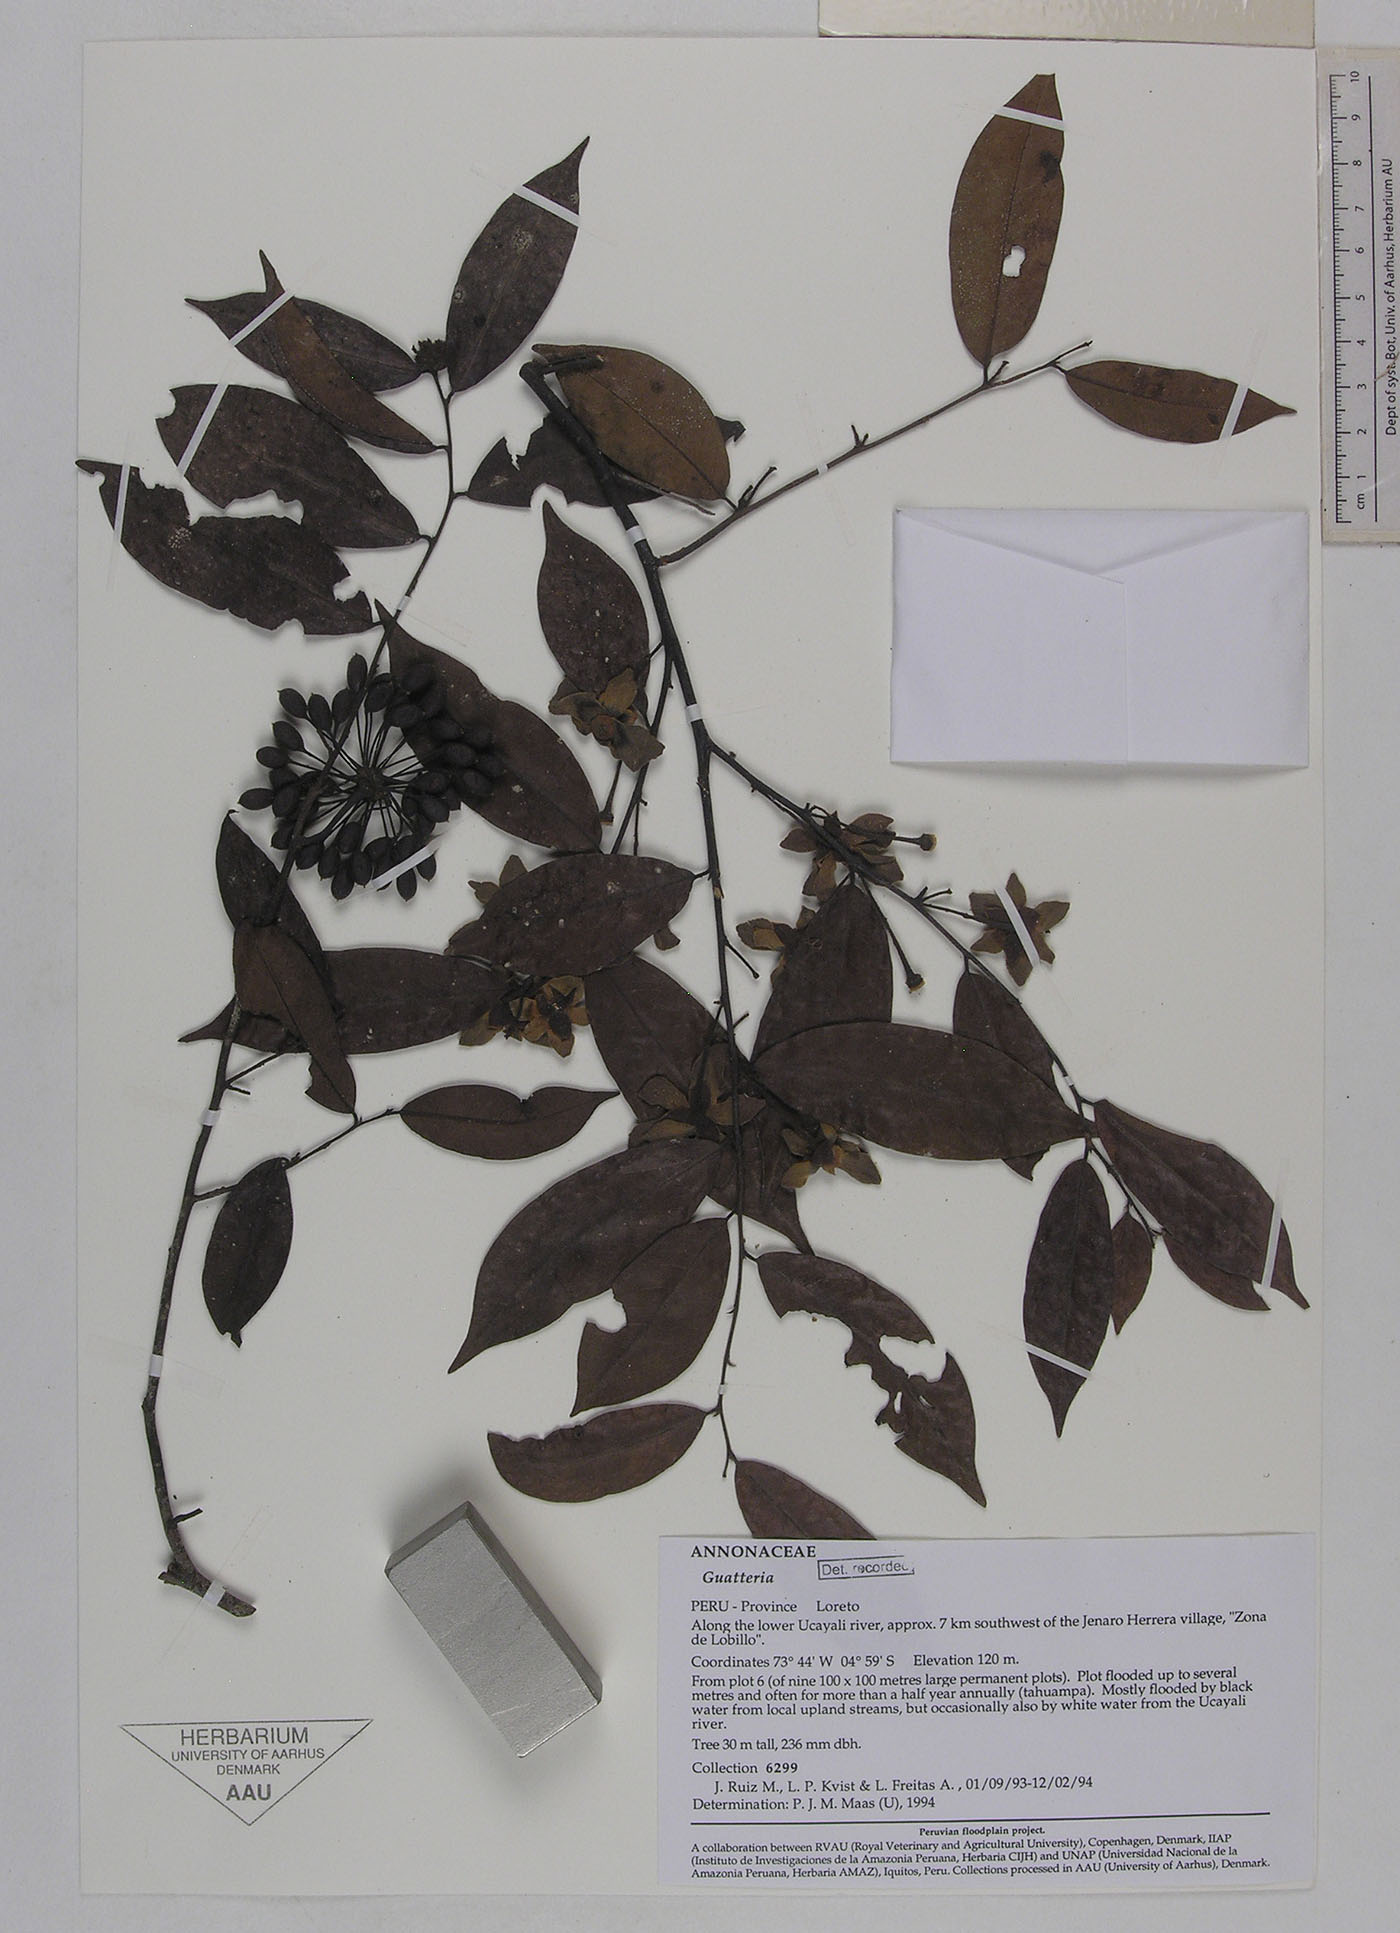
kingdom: Plantae
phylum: Tracheophyta
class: Magnoliopsida
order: Magnoliales
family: Annonaceae
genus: Guatteria
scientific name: Guatteria hirsuta
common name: Laurel
